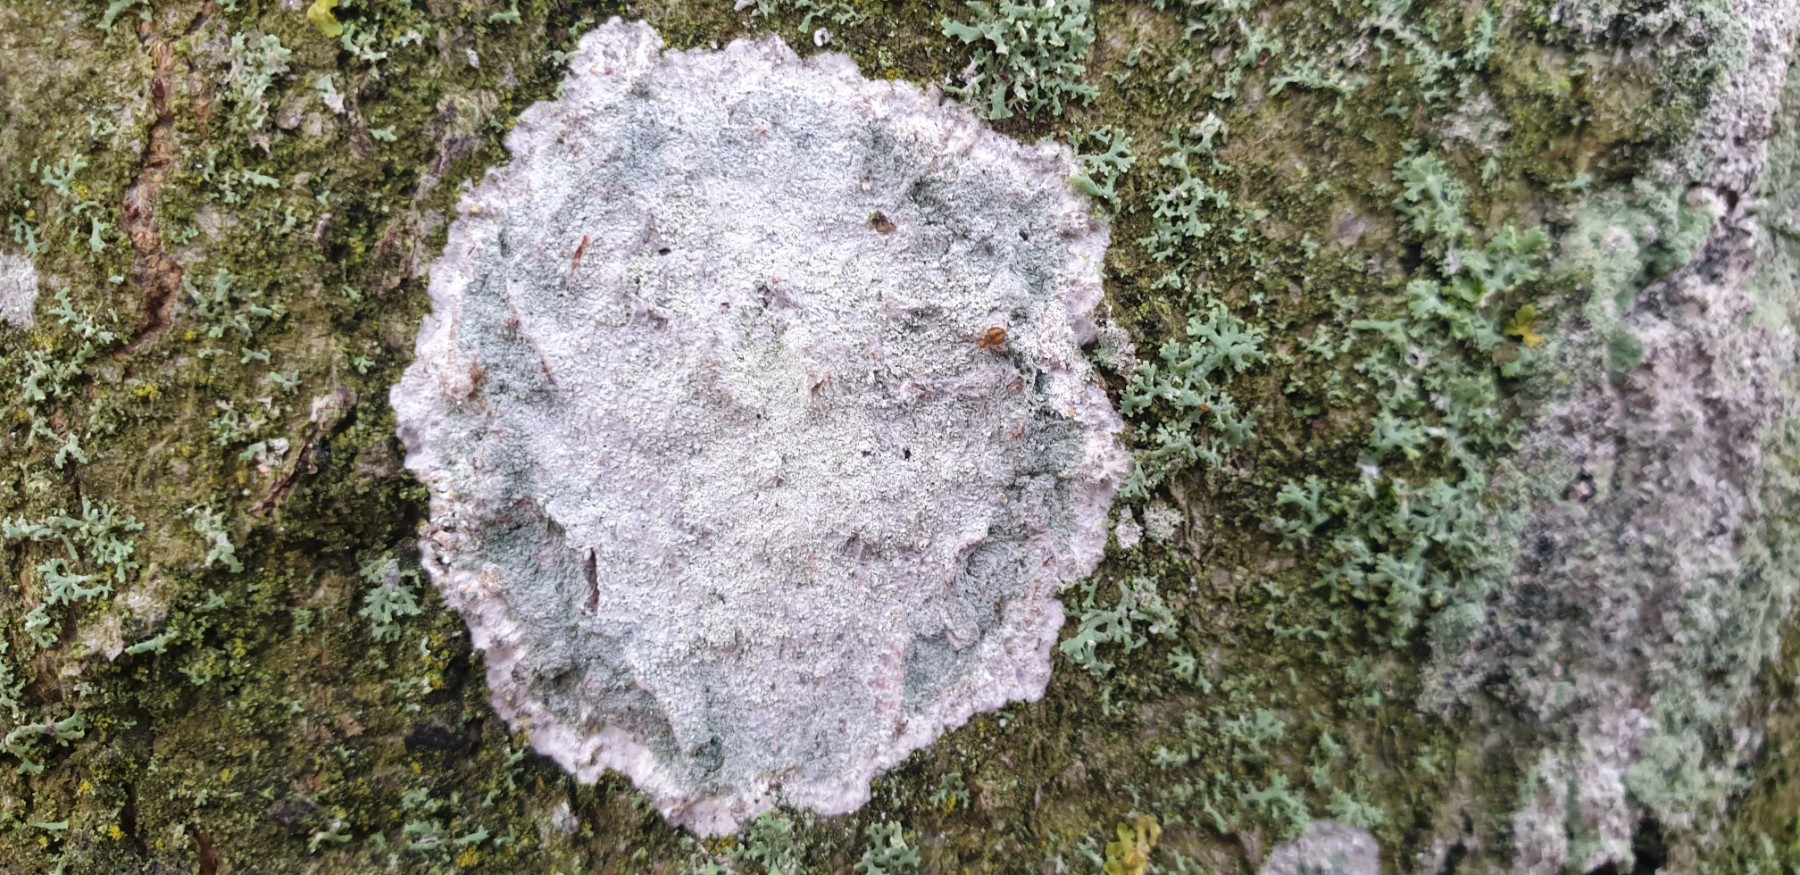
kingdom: Fungi
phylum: Ascomycota
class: Lecanoromycetes
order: Ostropales
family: Phlyctidaceae
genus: Phlyctis
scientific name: Phlyctis argena
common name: almindelig sølvlav
